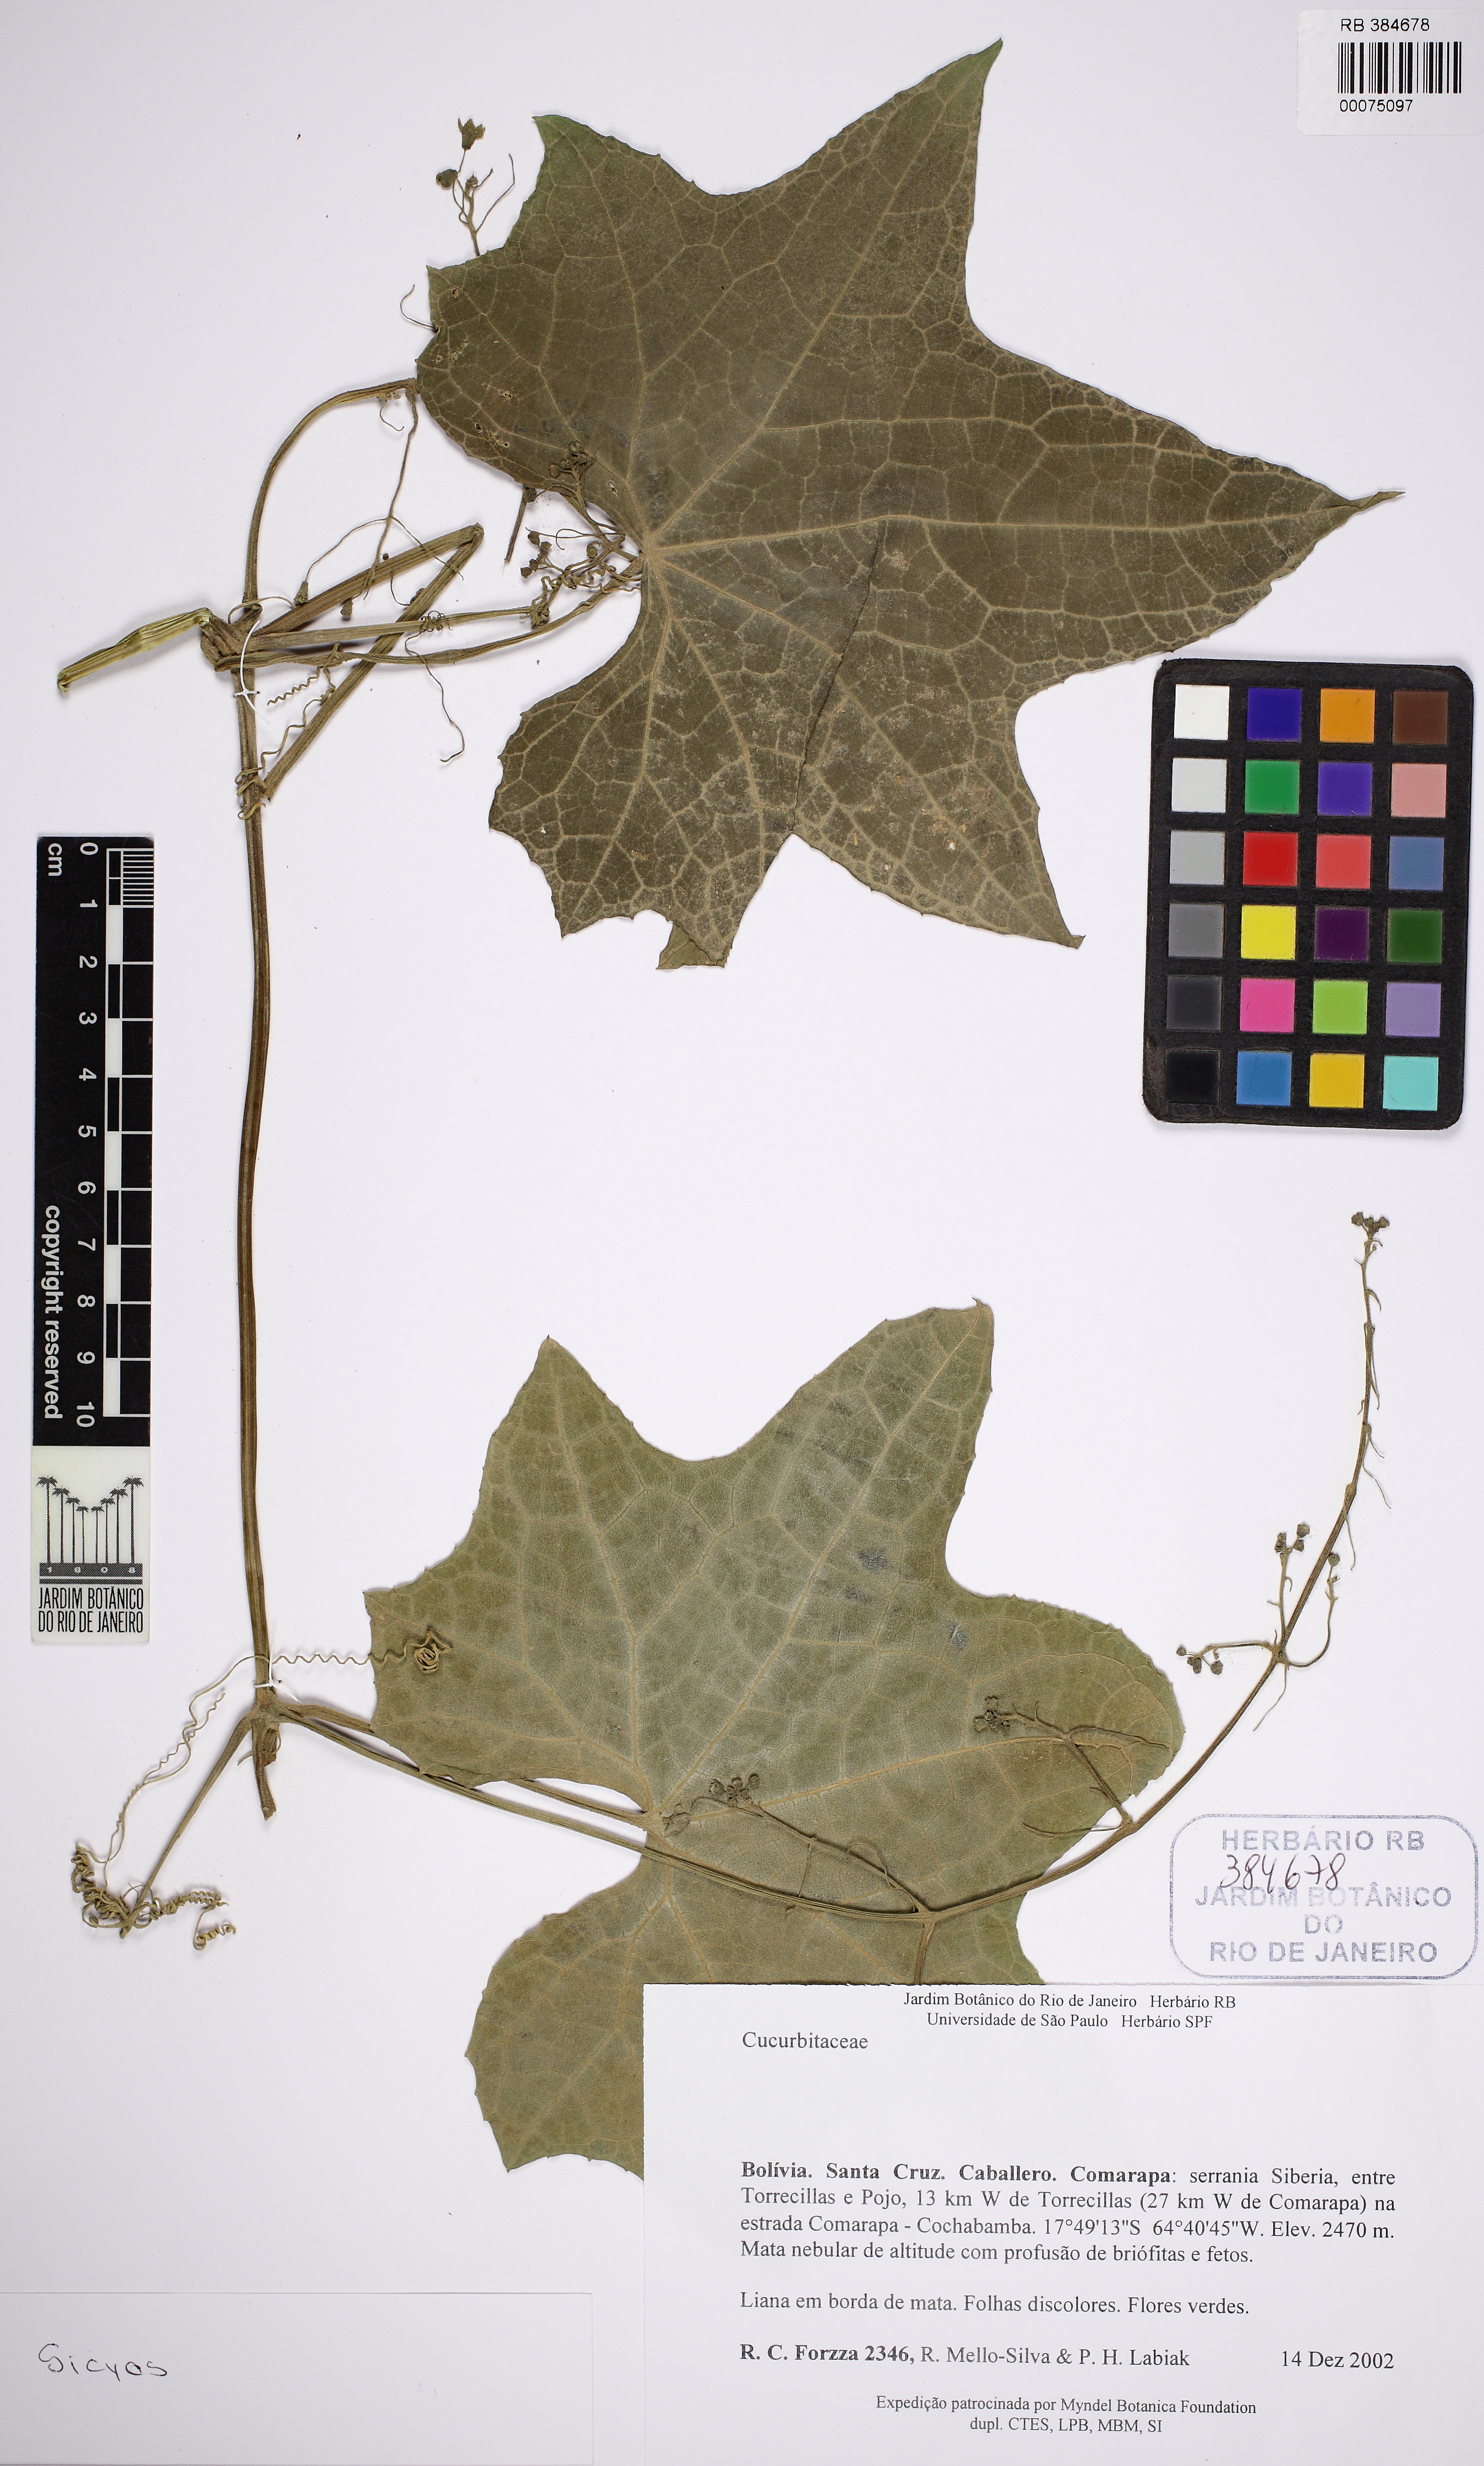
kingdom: Plantae
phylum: Tracheophyta
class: Magnoliopsida
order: Cucurbitales
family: Cucurbitaceae
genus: Sicyos
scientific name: Sicyos
